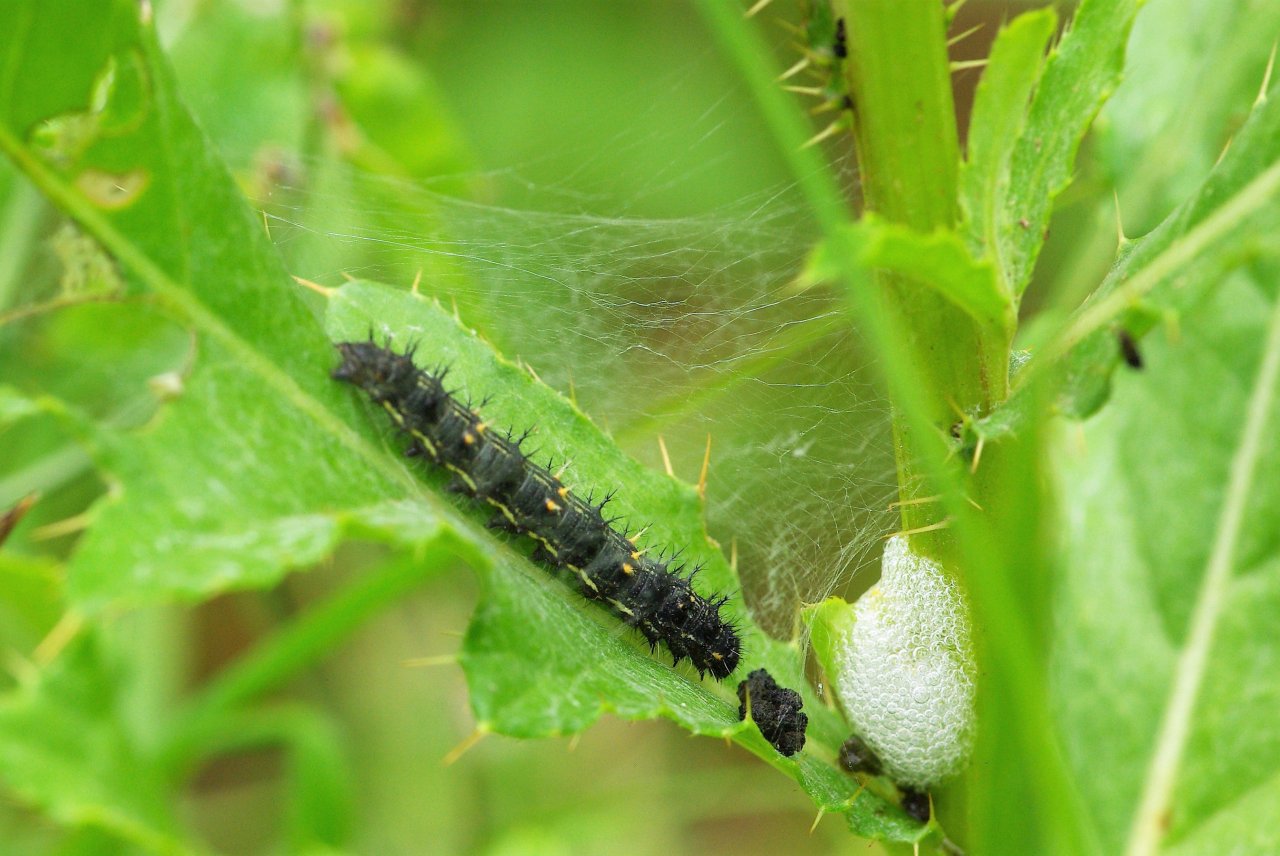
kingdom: Animalia
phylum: Arthropoda
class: Insecta
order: Lepidoptera
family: Nymphalidae
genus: Vanessa
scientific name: Vanessa cardui
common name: Painted Lady
